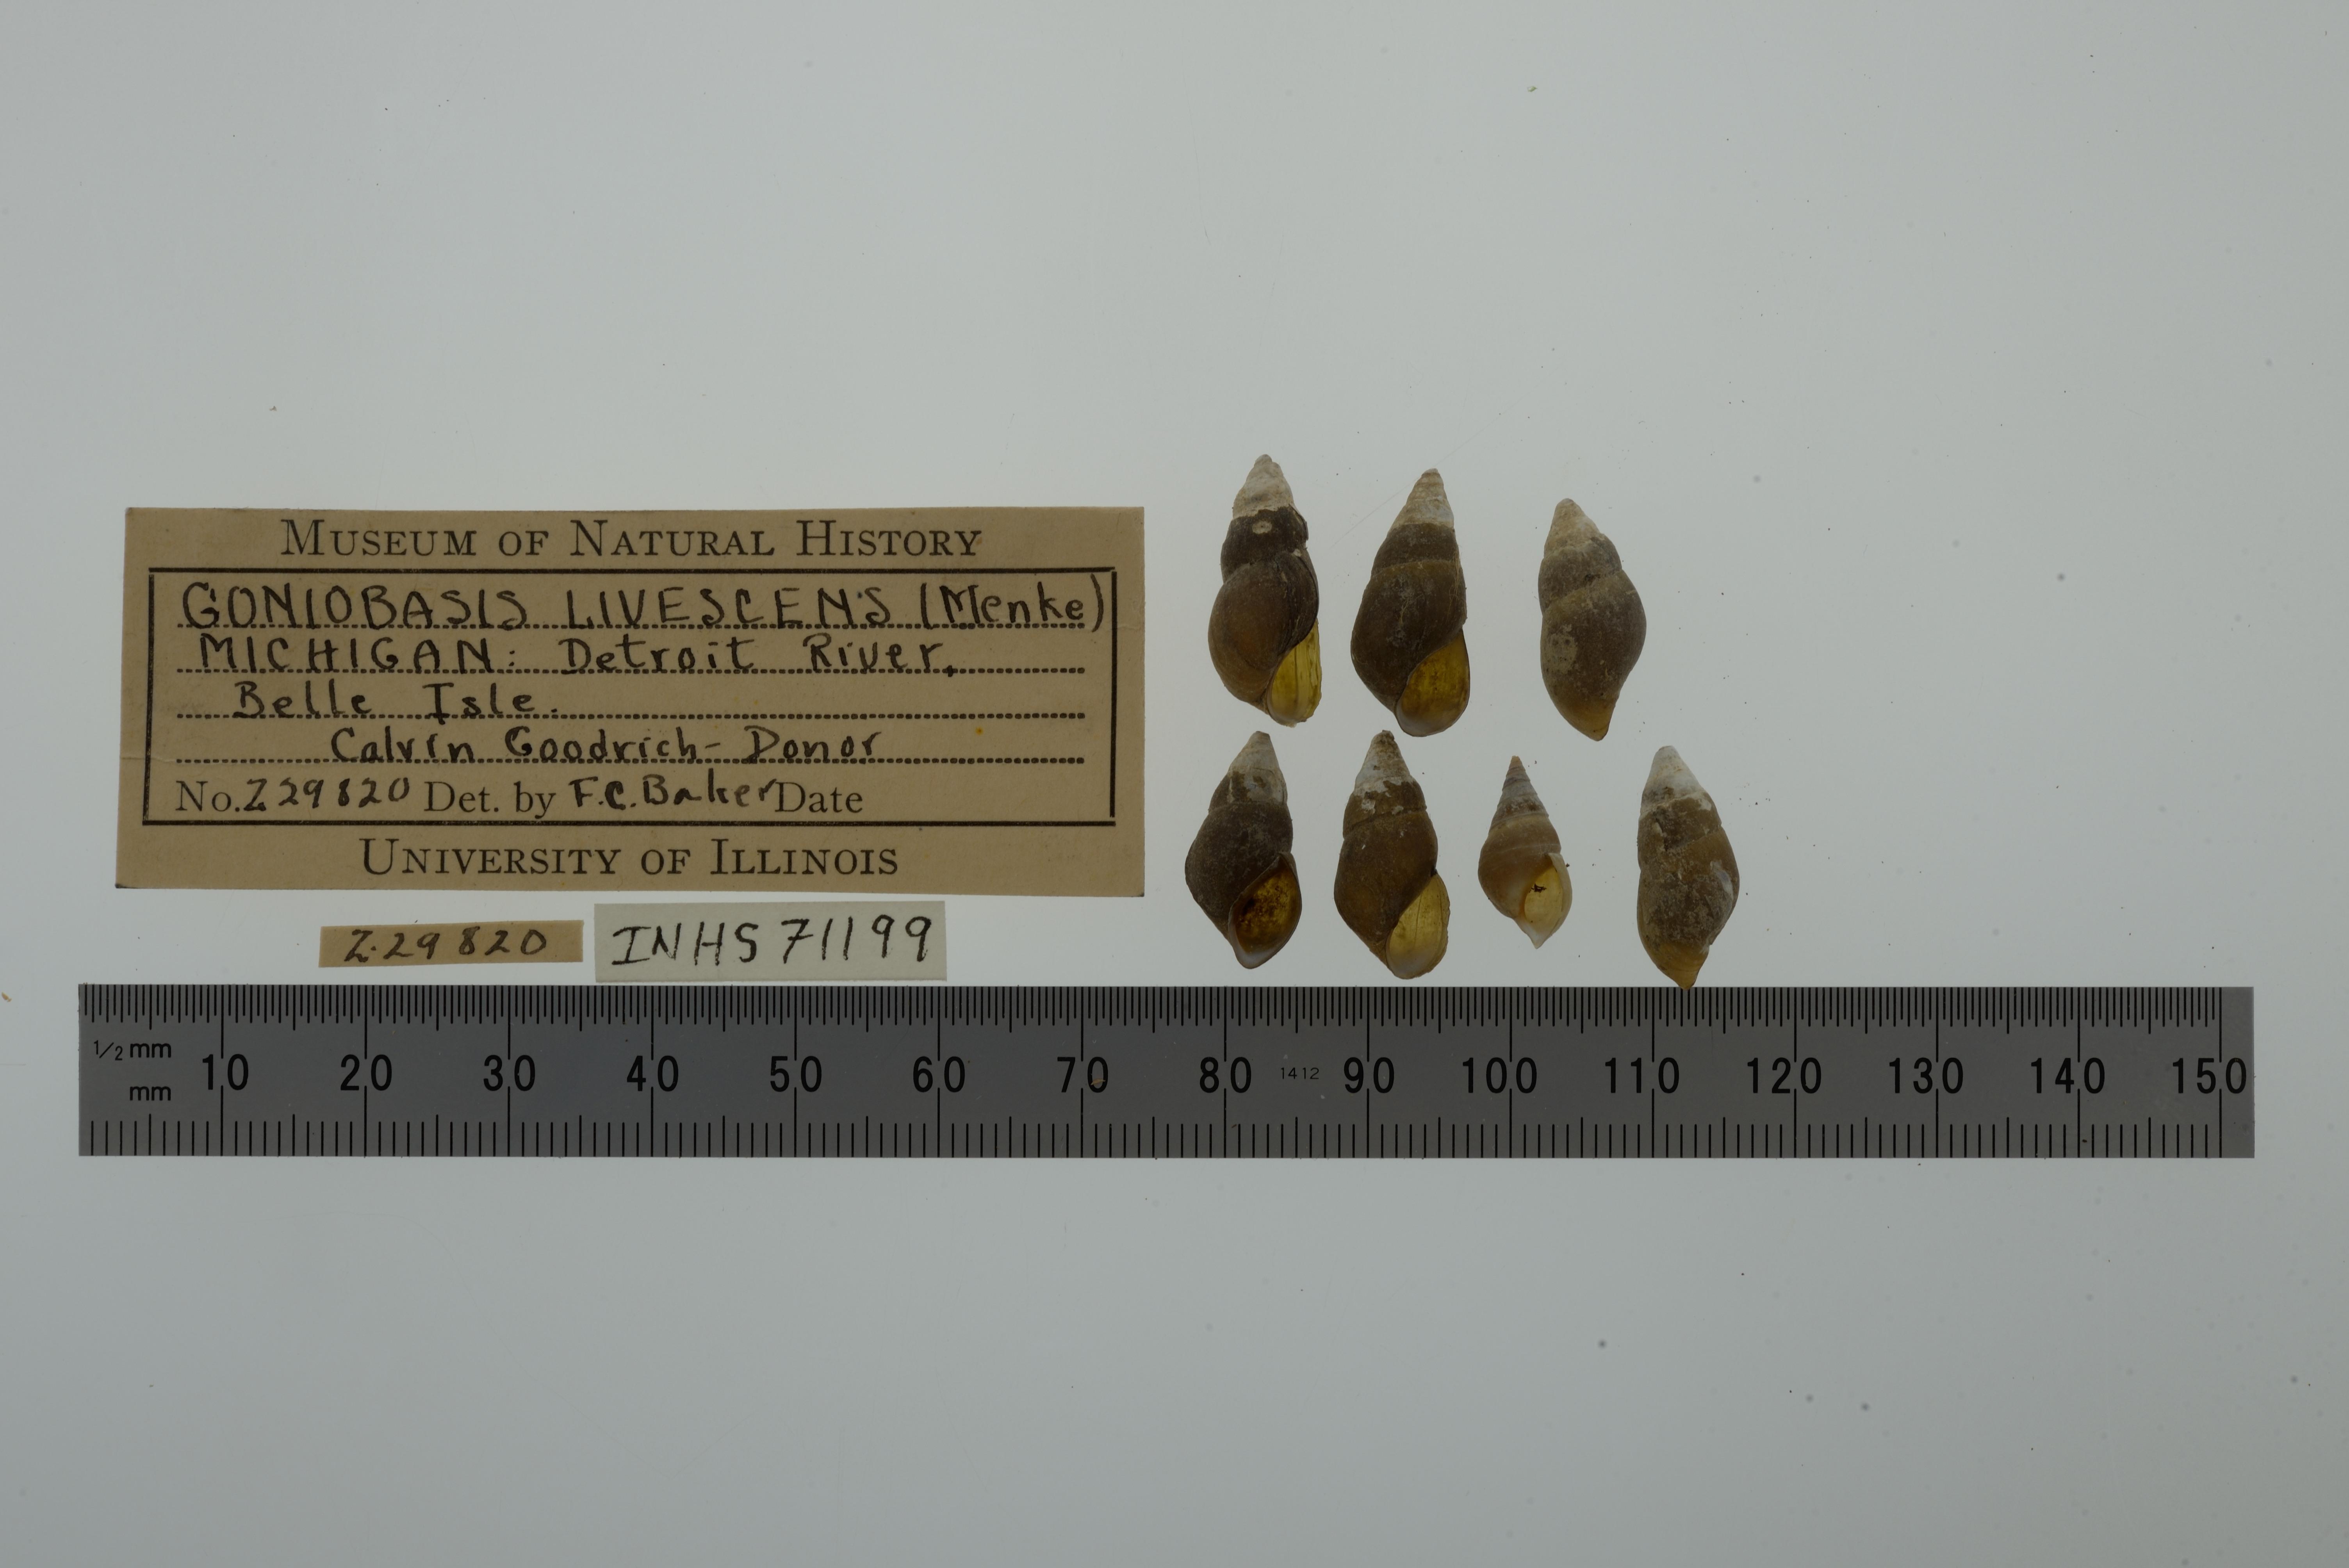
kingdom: Animalia
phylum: Mollusca
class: Gastropoda
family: Pleuroceridae
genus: Elimia
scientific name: Elimia livescens
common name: Liver elimia
